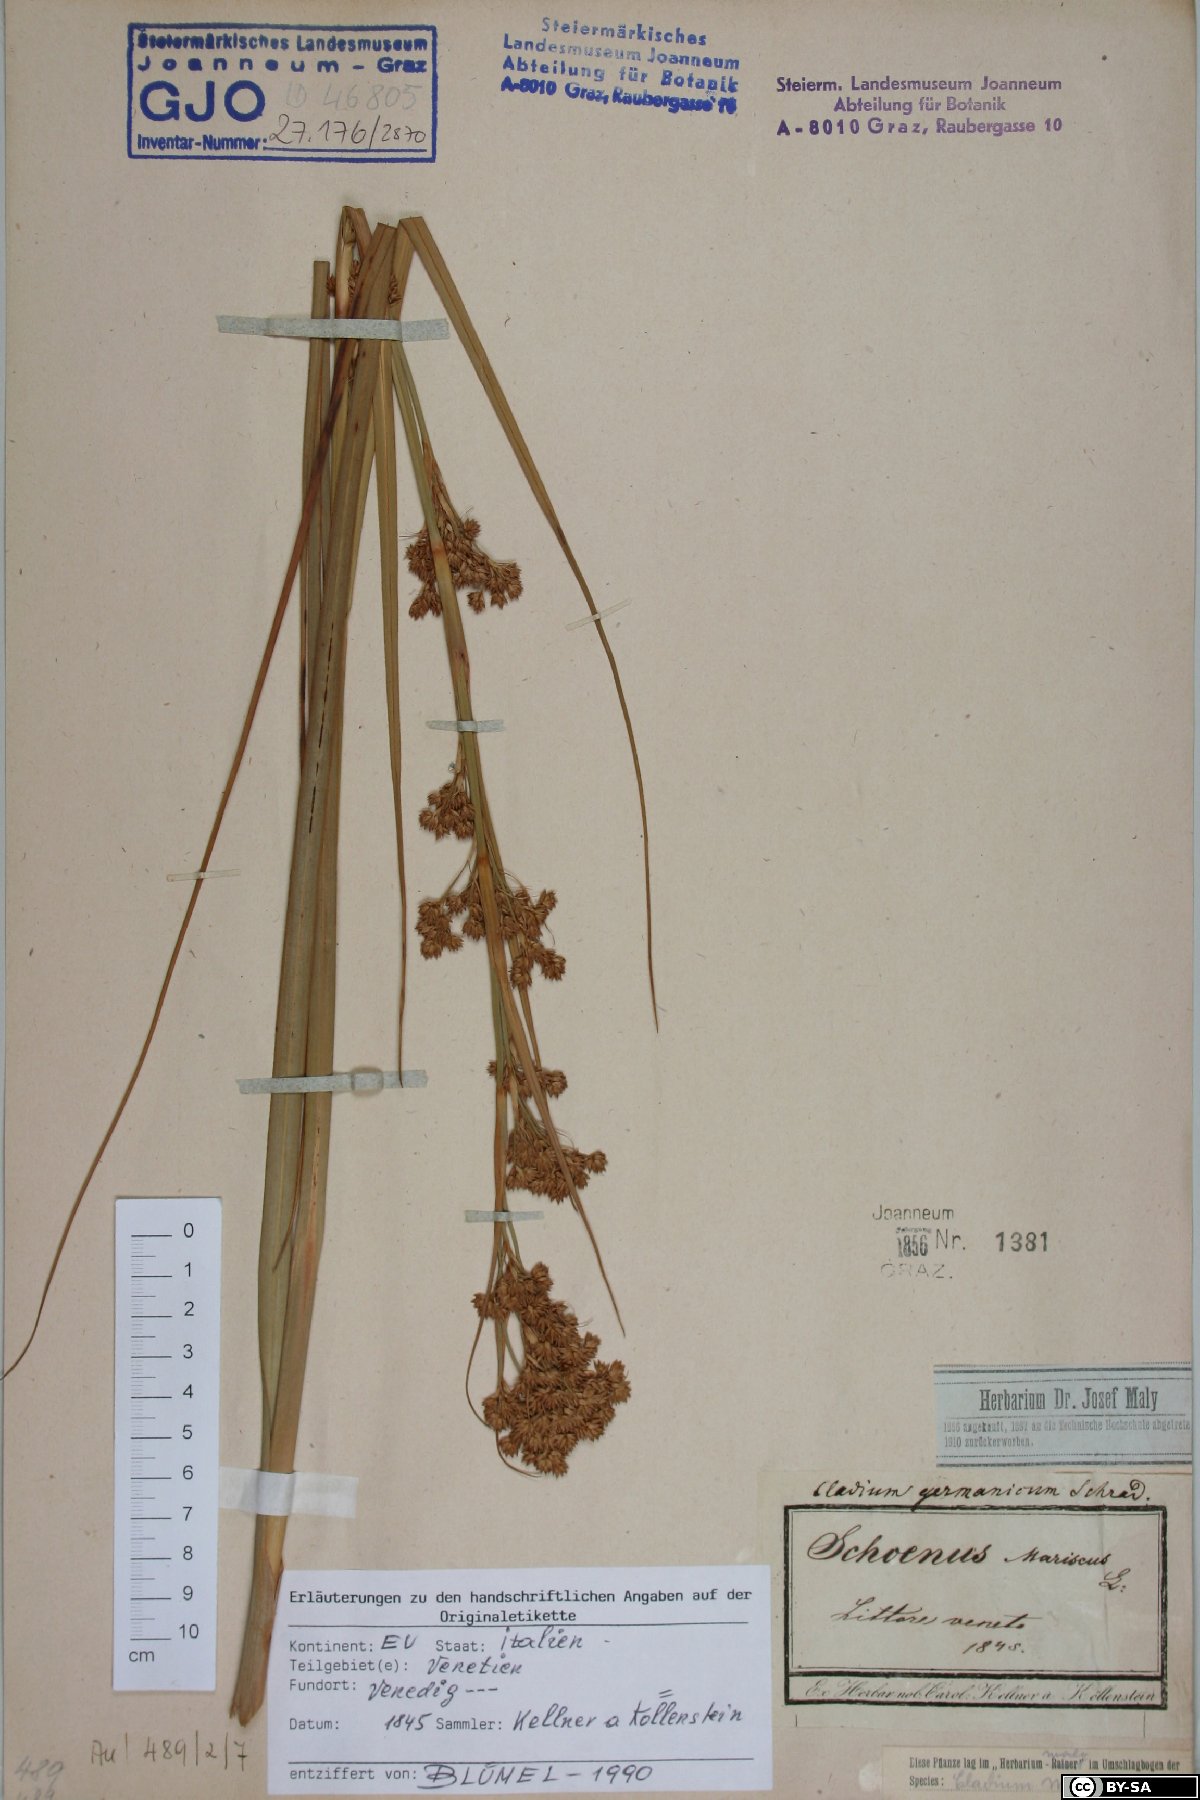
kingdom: Plantae
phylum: Tracheophyta
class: Liliopsida
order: Poales
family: Cyperaceae
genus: Cladium
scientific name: Cladium mariscus
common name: Great fen-sedge
